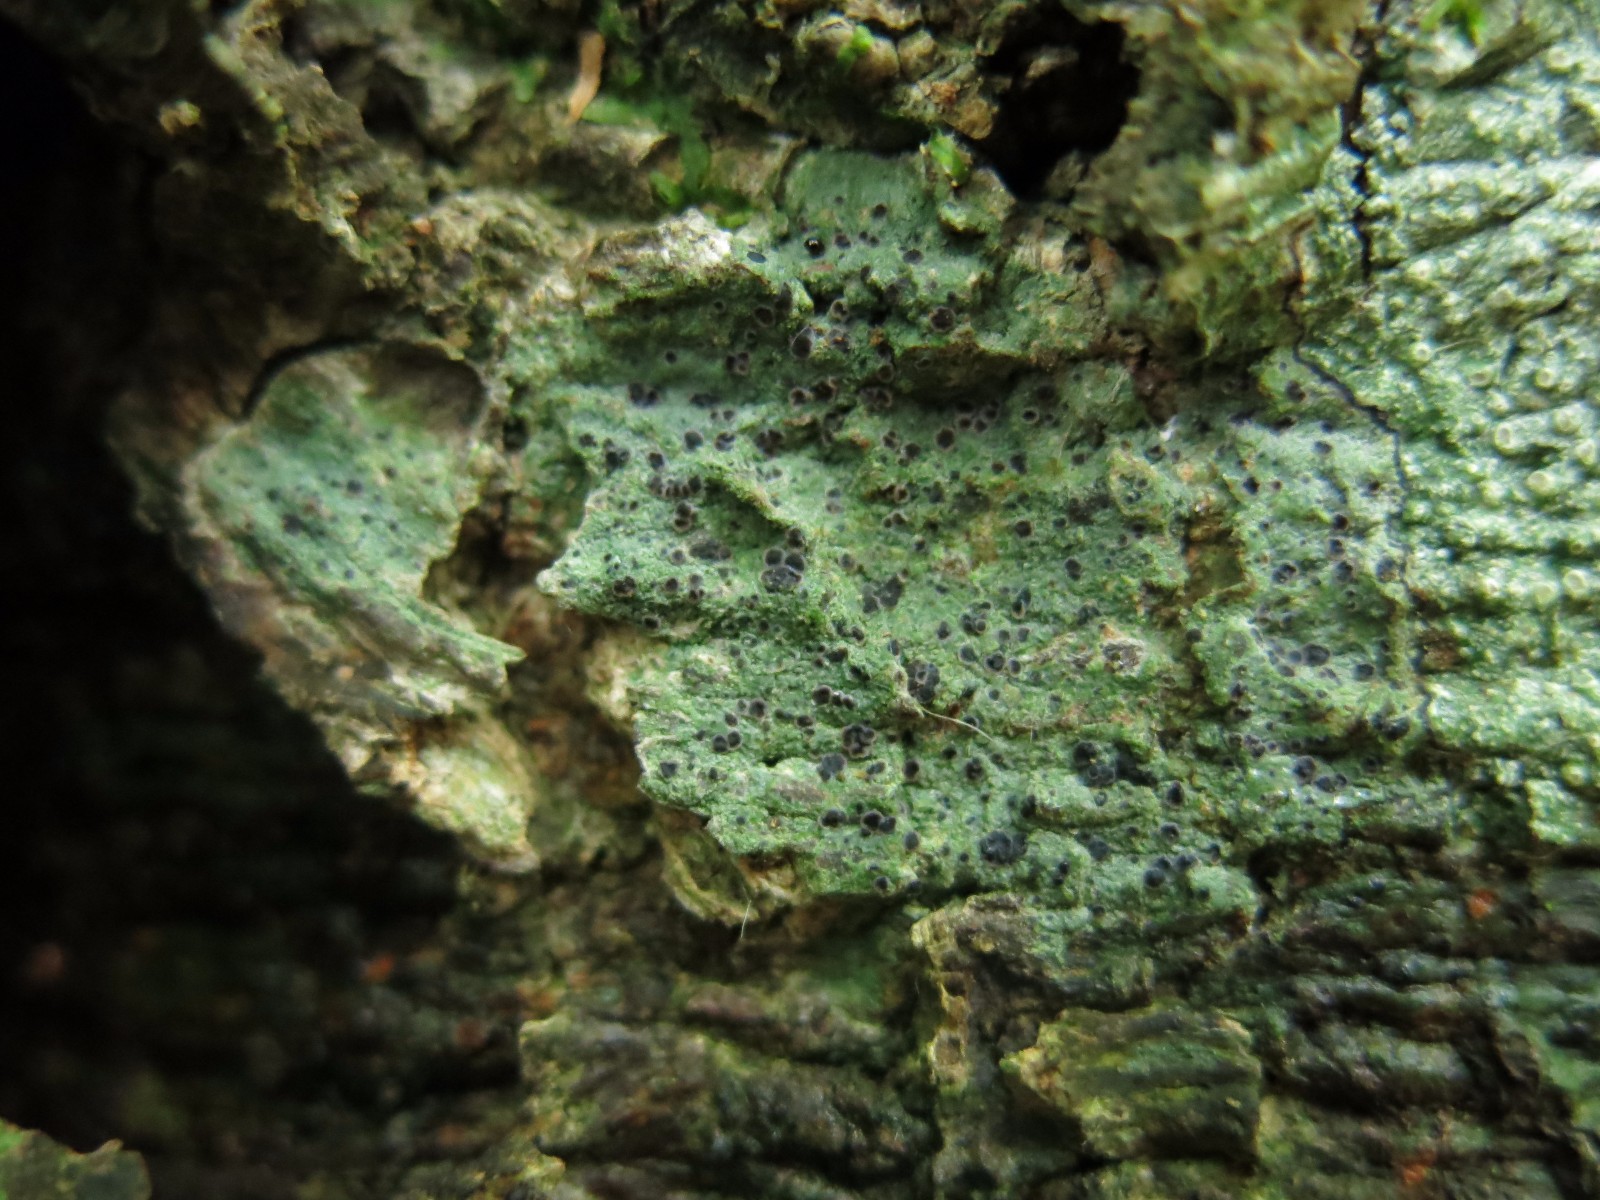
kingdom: Fungi
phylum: Ascomycota
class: Lecanoromycetes
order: Lecanorales
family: Ramalinaceae
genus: Megalaria
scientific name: Megalaria laureri
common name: bøge-megalaria
